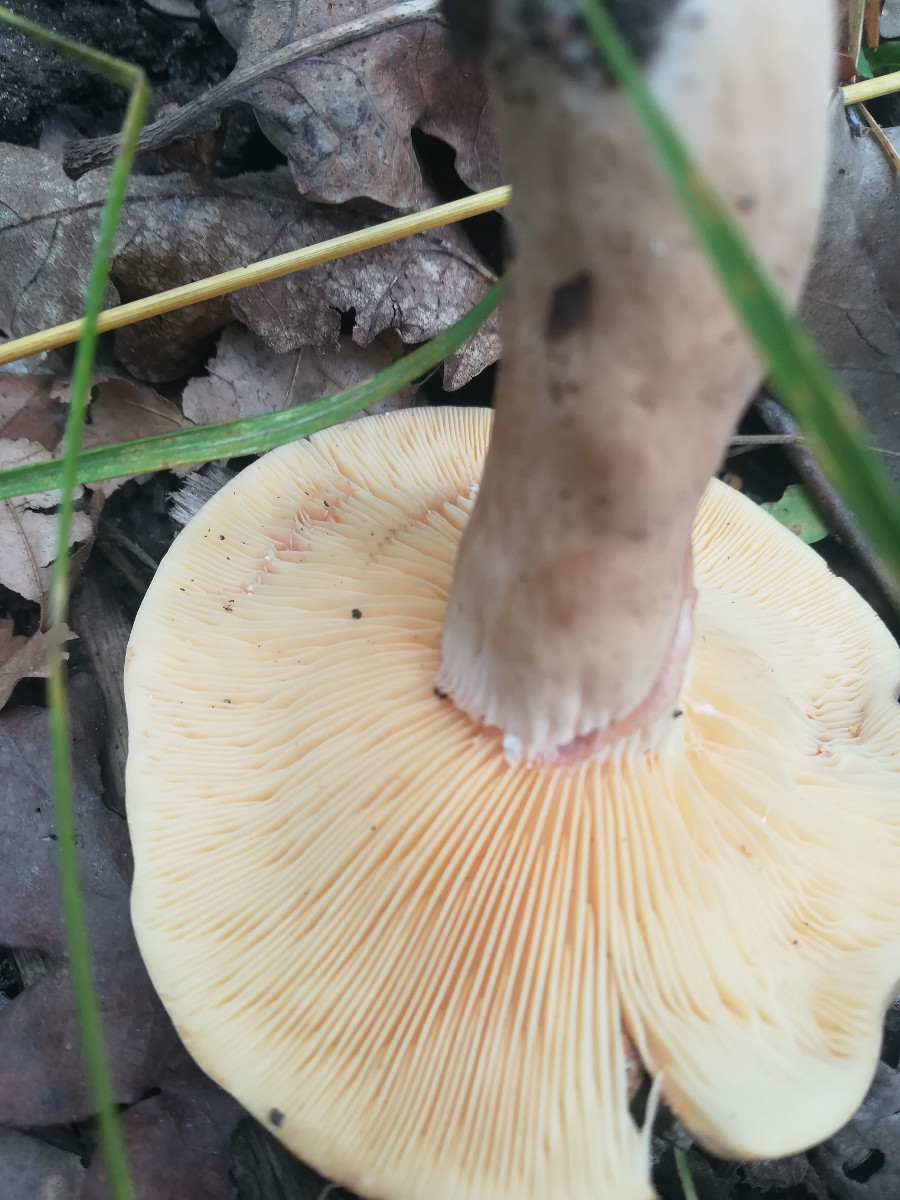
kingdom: Fungi
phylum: Basidiomycota
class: Agaricomycetes
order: Russulales
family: Russulaceae
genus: Lactarius
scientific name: Lactarius azonites
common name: røggrå mælkehat
